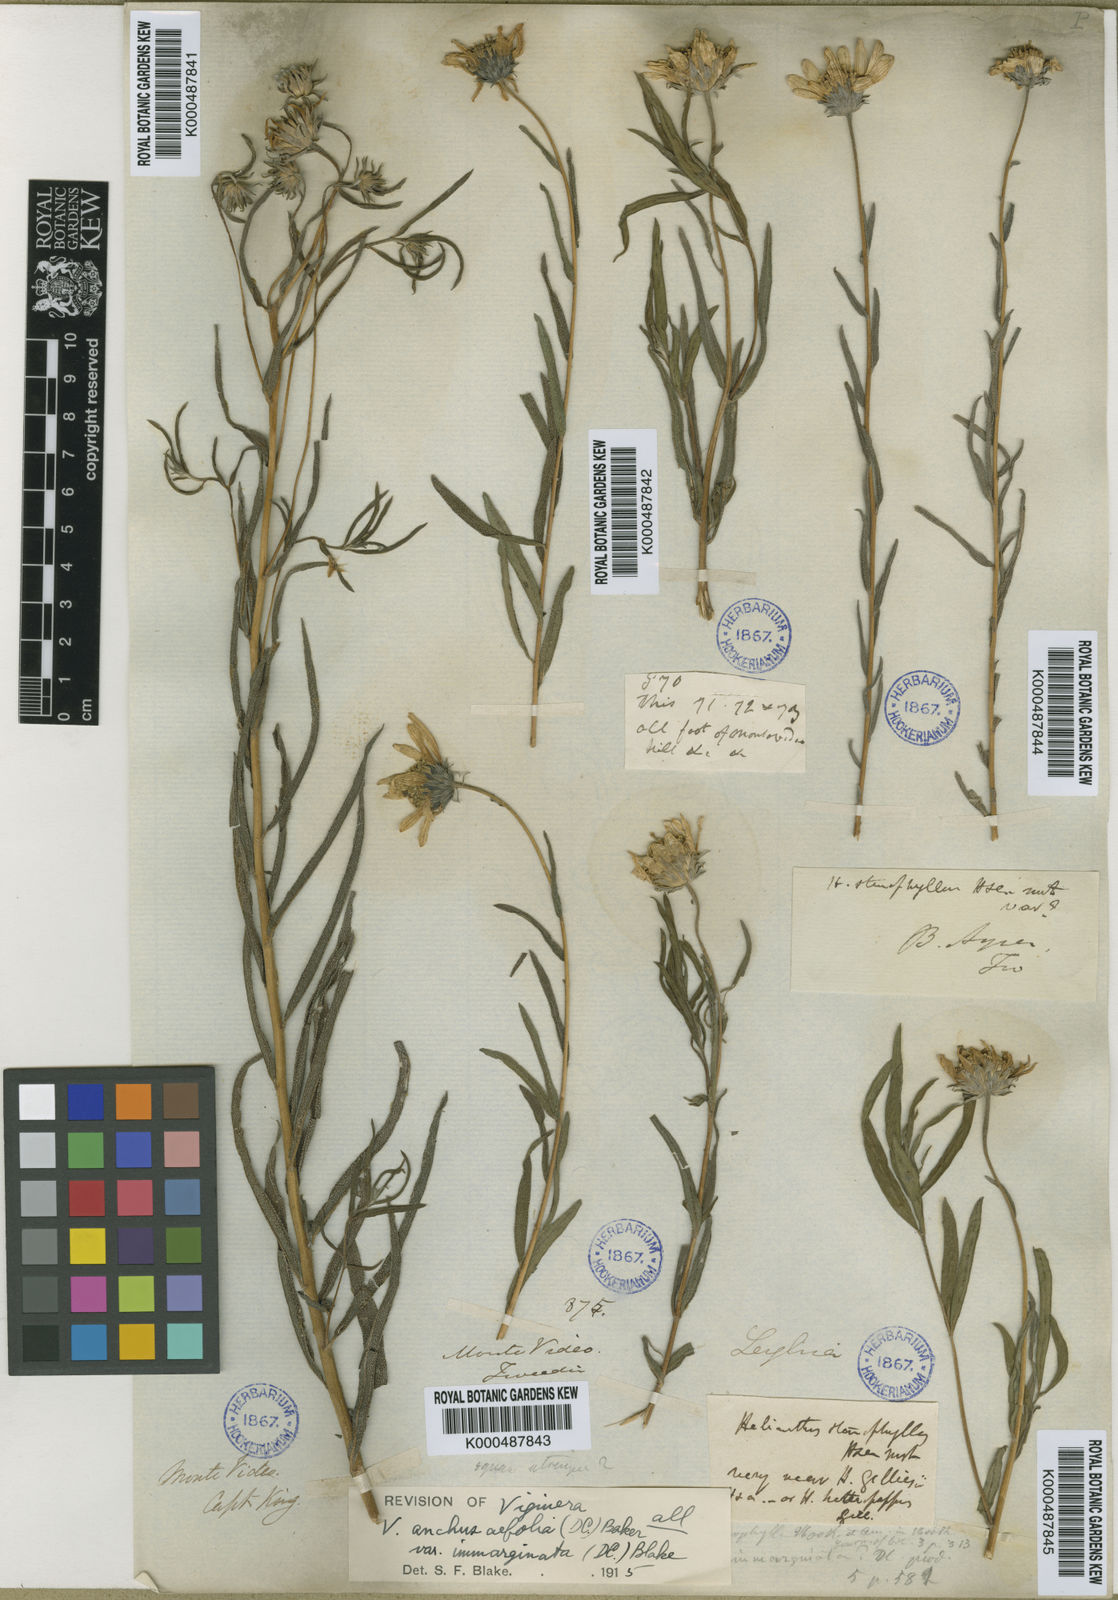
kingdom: Plantae
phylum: Tracheophyta
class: Magnoliopsida
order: Asterales
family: Asteraceae
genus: Aldama
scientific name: Aldama anchusifolia
